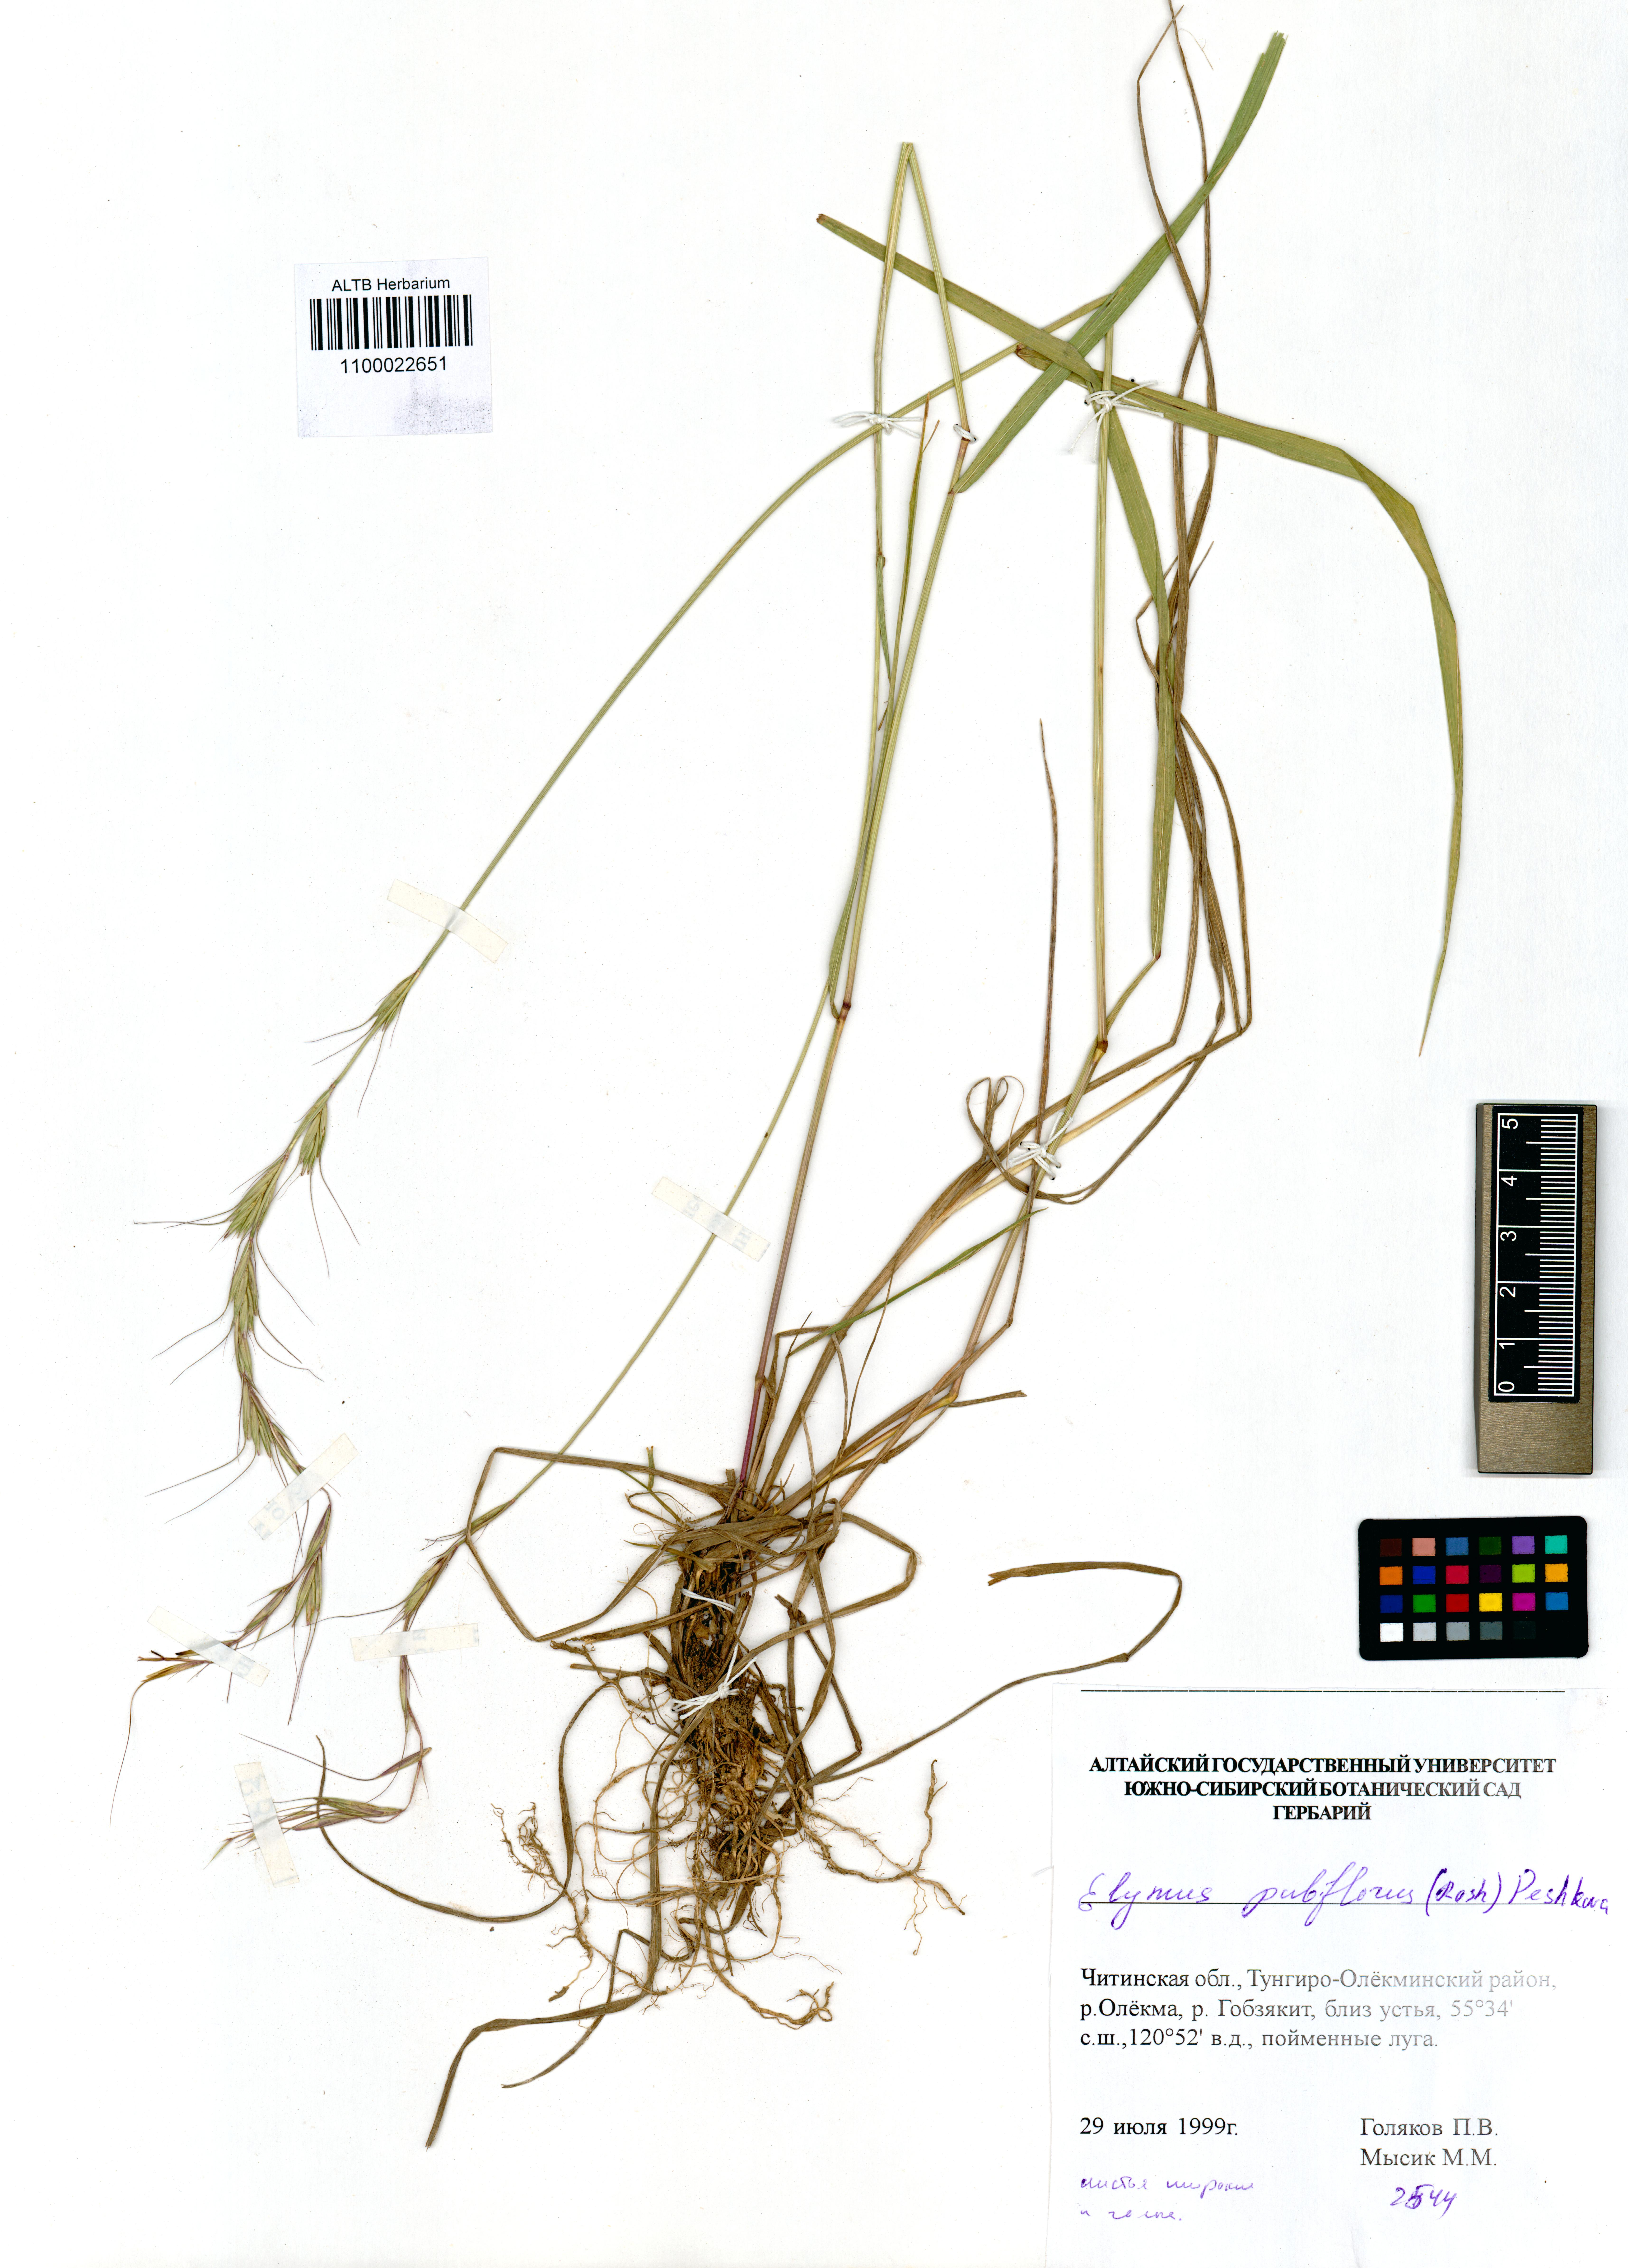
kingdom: Plantae
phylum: Tracheophyta
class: Liliopsida
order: Poales
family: Poaceae
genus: Elymus
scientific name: Elymus confusus
